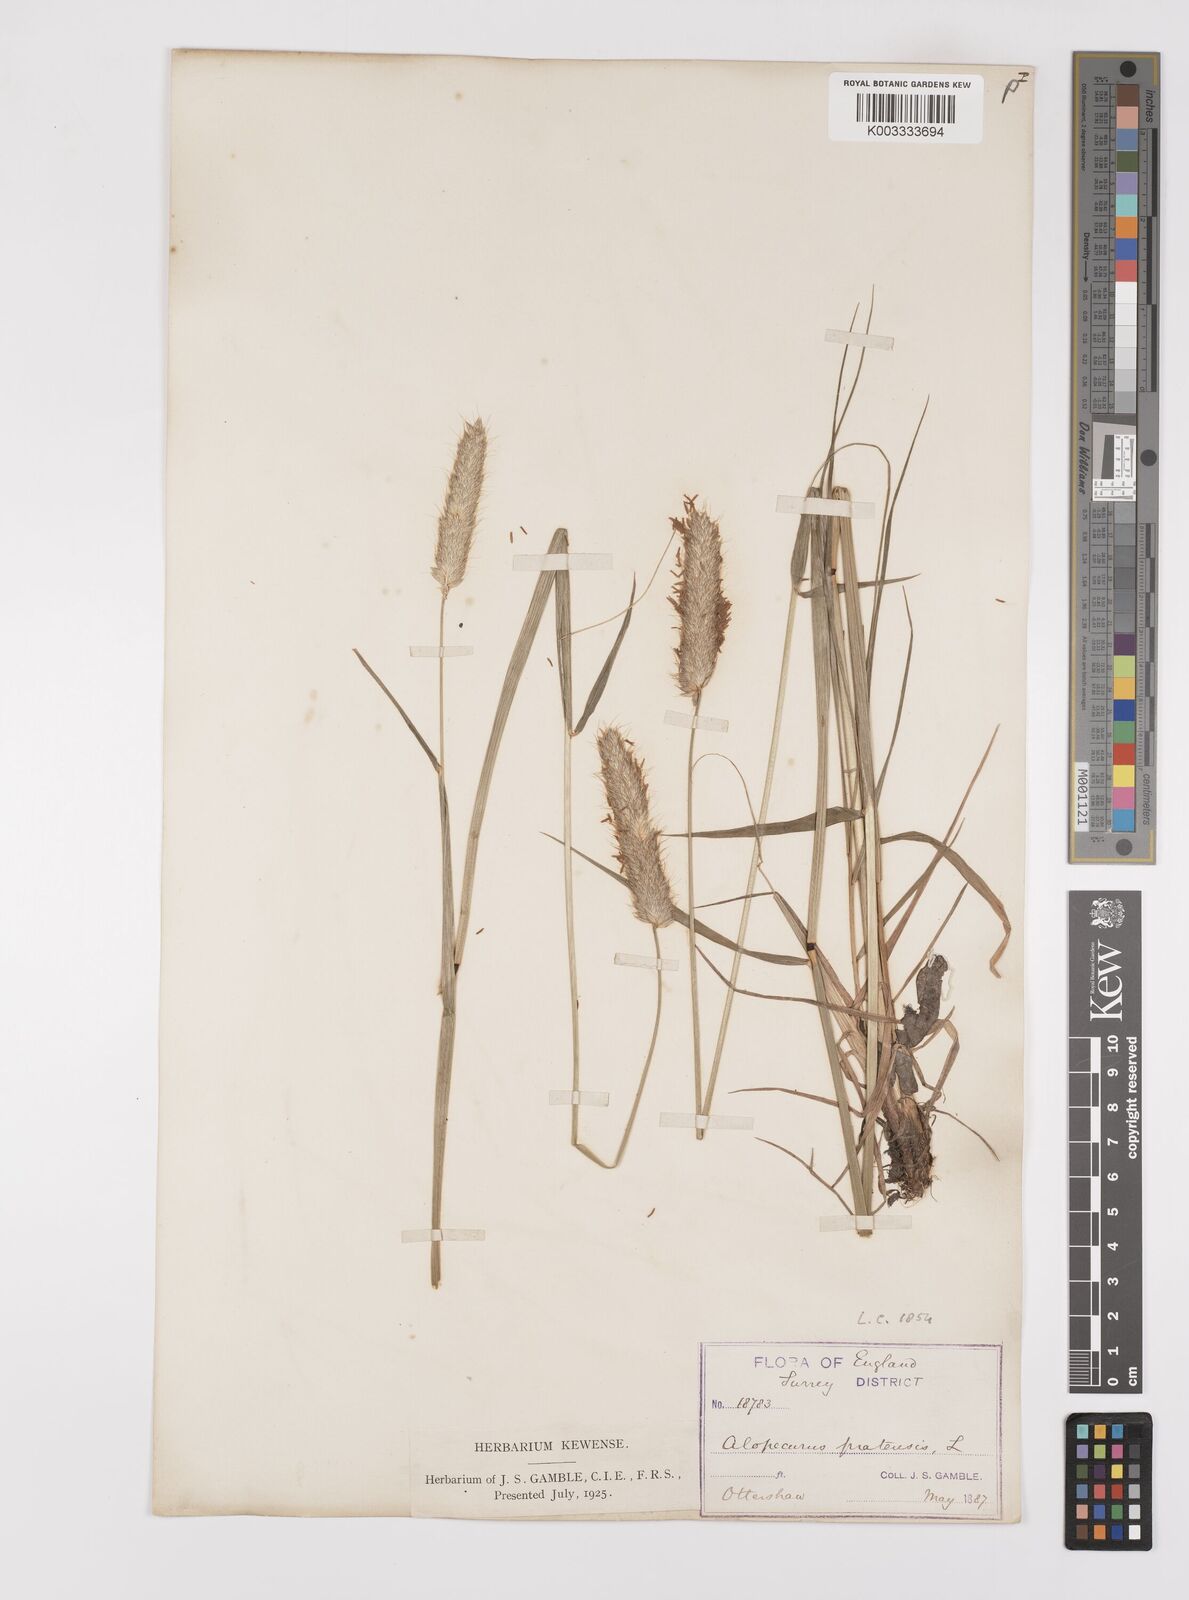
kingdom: Plantae
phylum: Tracheophyta
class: Liliopsida
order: Poales
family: Poaceae
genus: Alopecurus
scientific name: Alopecurus pratensis
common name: Meadow foxtail
